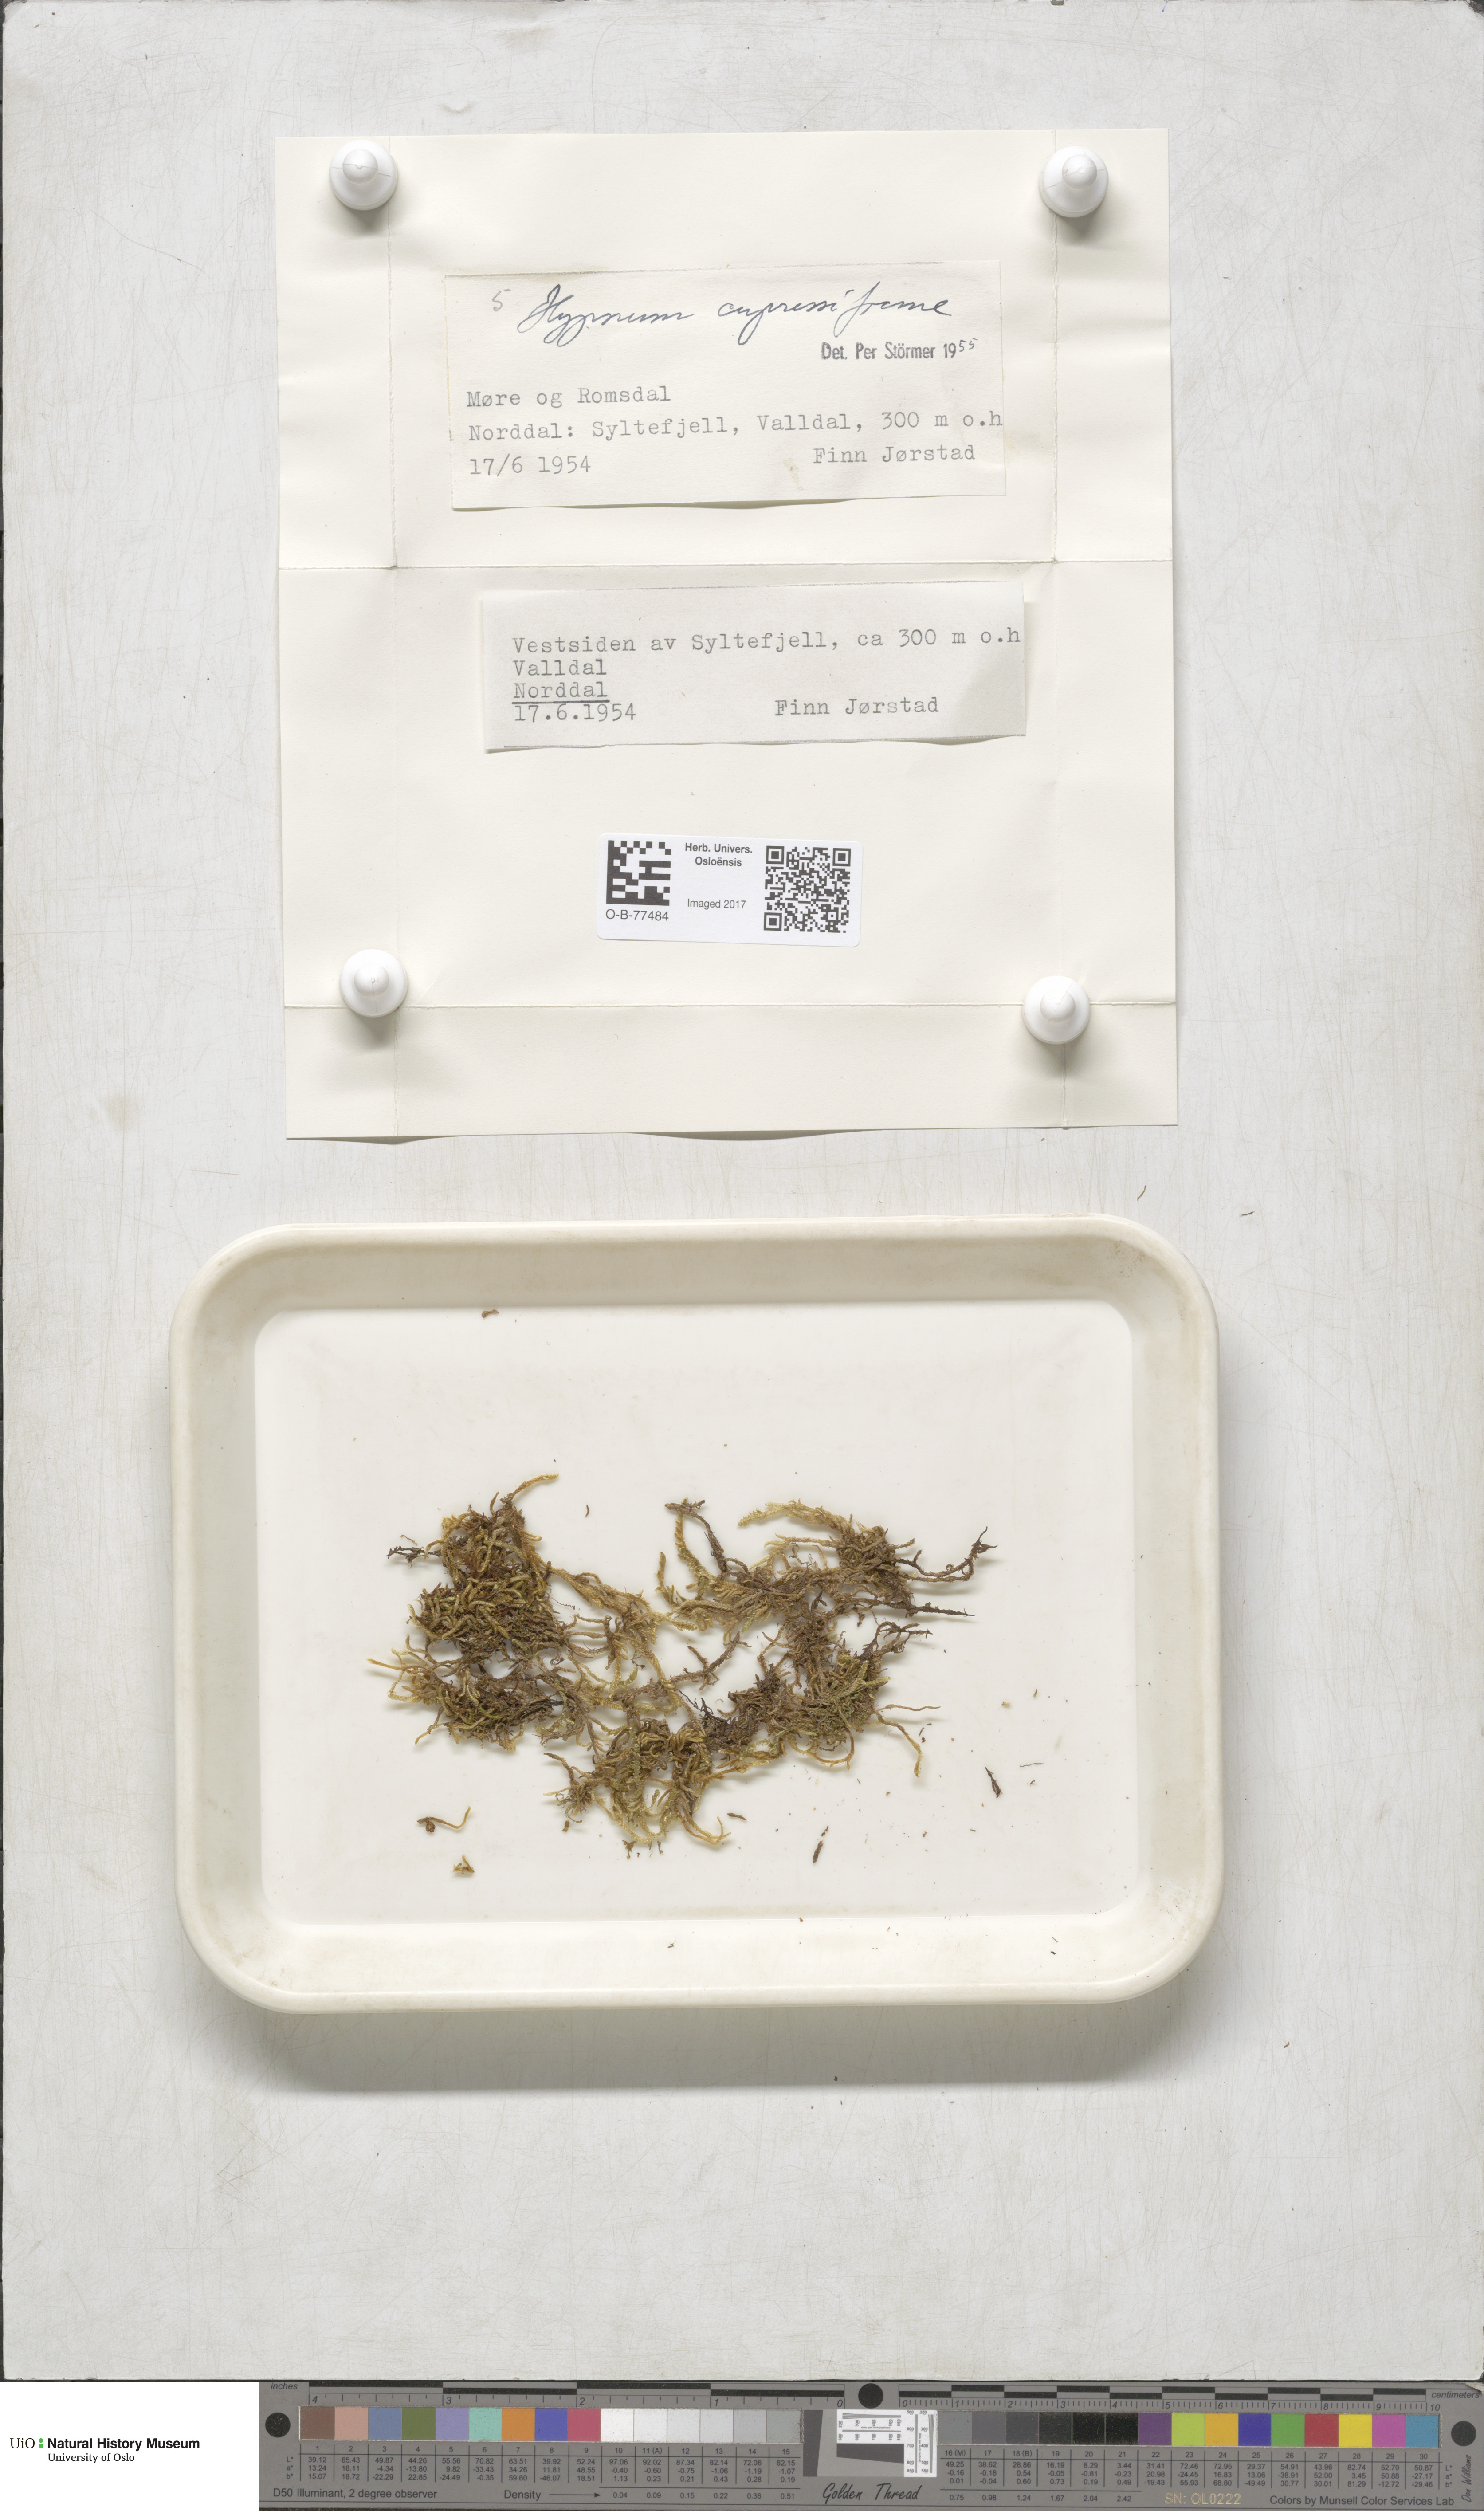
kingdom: Plantae
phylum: Bryophyta
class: Bryopsida
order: Hypnales
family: Hypnaceae
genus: Hypnum
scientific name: Hypnum cupressiforme
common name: Cypress-leaved plait-moss
